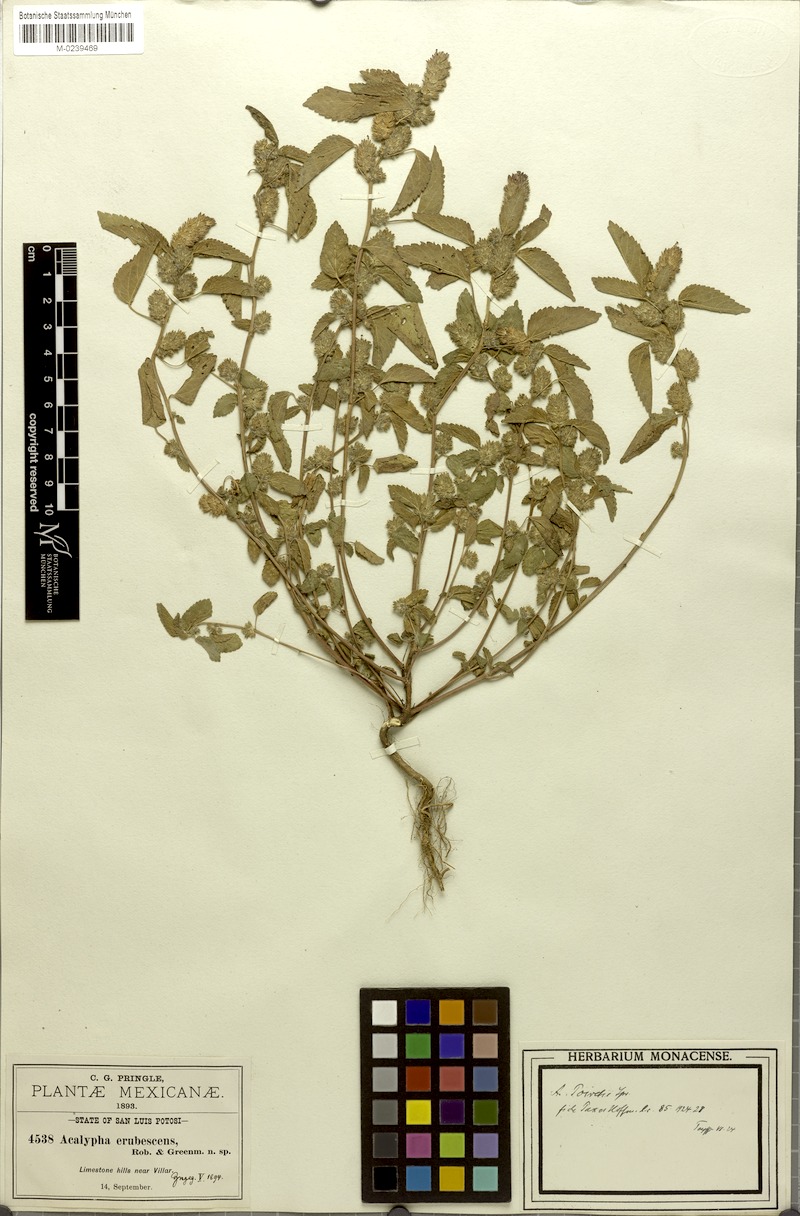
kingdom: Plantae
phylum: Tracheophyta
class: Magnoliopsida
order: Malpighiales
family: Euphorbiaceae
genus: Acalypha
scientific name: Acalypha erubescens
